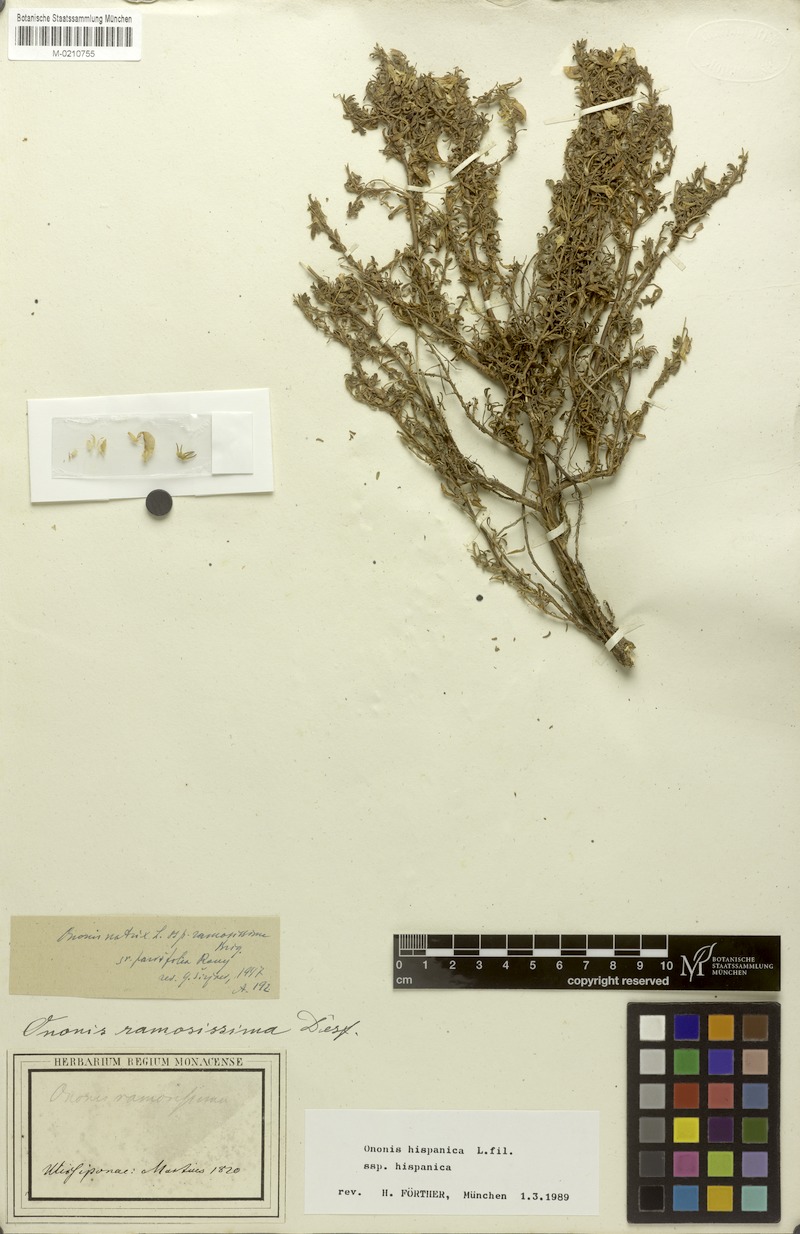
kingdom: Plantae
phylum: Tracheophyta
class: Magnoliopsida
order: Fabales
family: Fabaceae
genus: Ononis
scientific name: Ononis natrix
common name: Yellow restharrow
